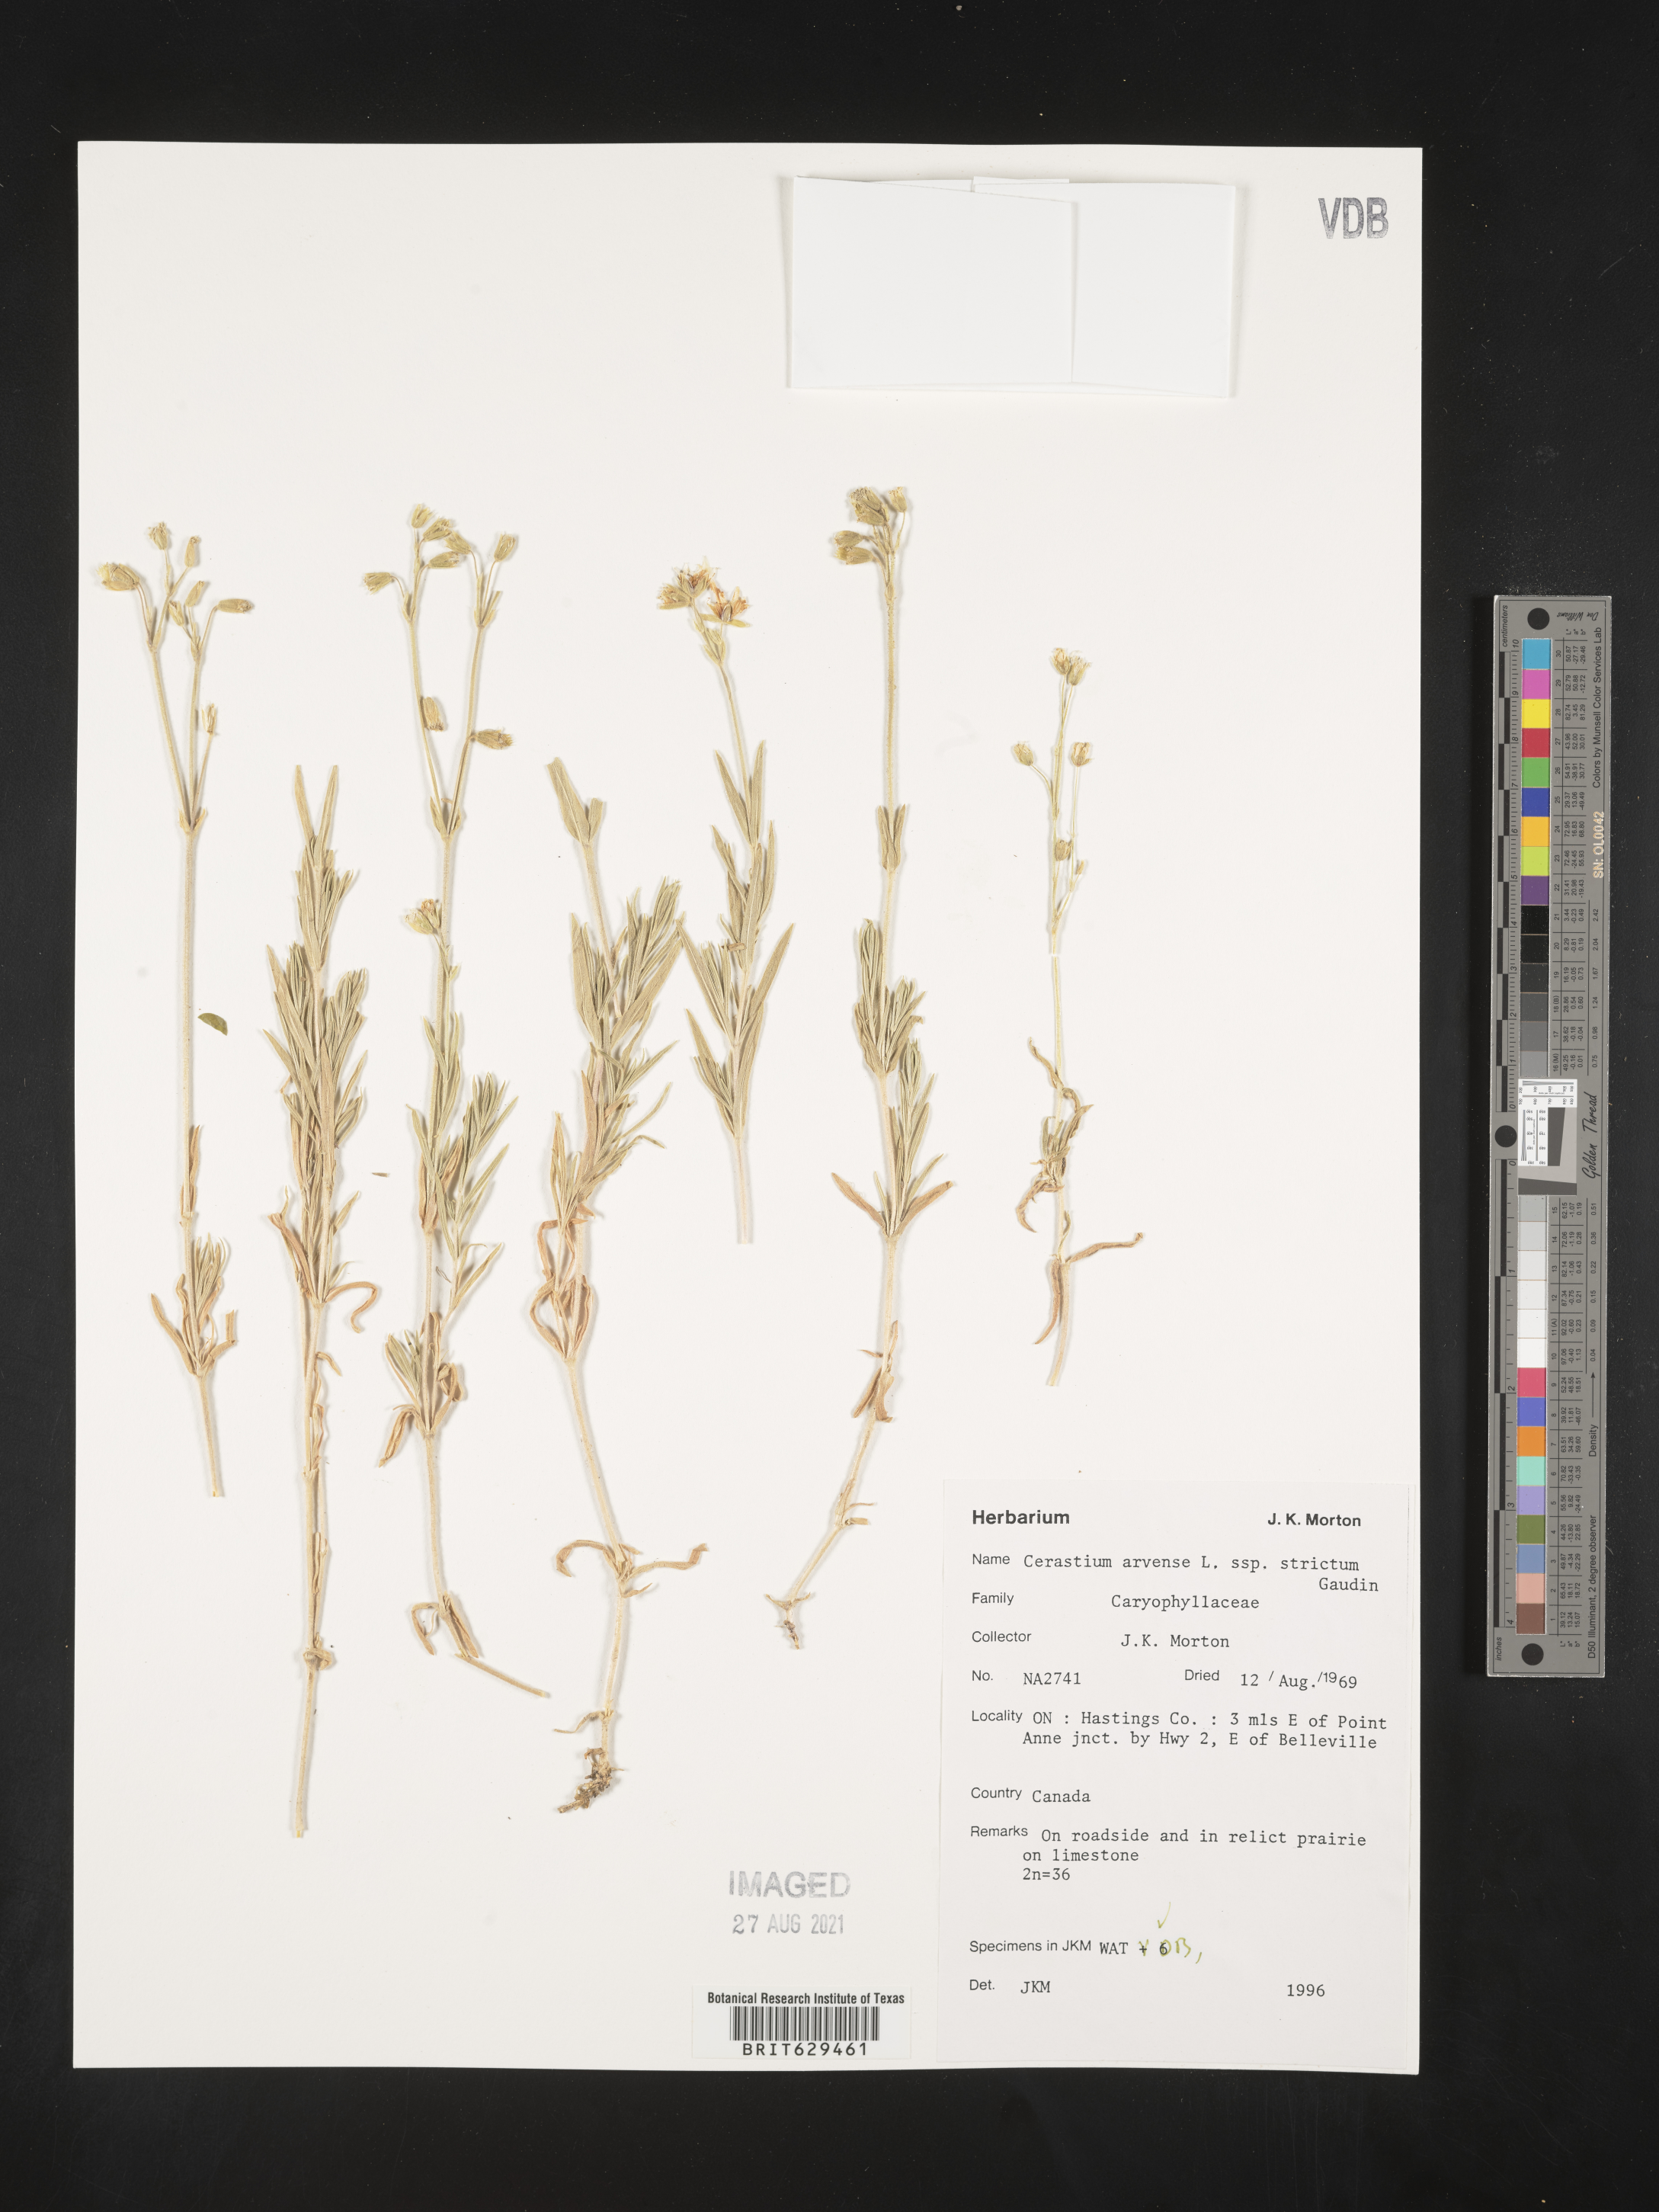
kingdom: Plantae
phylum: Tracheophyta
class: Magnoliopsida
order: Caryophyllales
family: Caryophyllaceae
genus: Cerastium
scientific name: Cerastium elongatum
